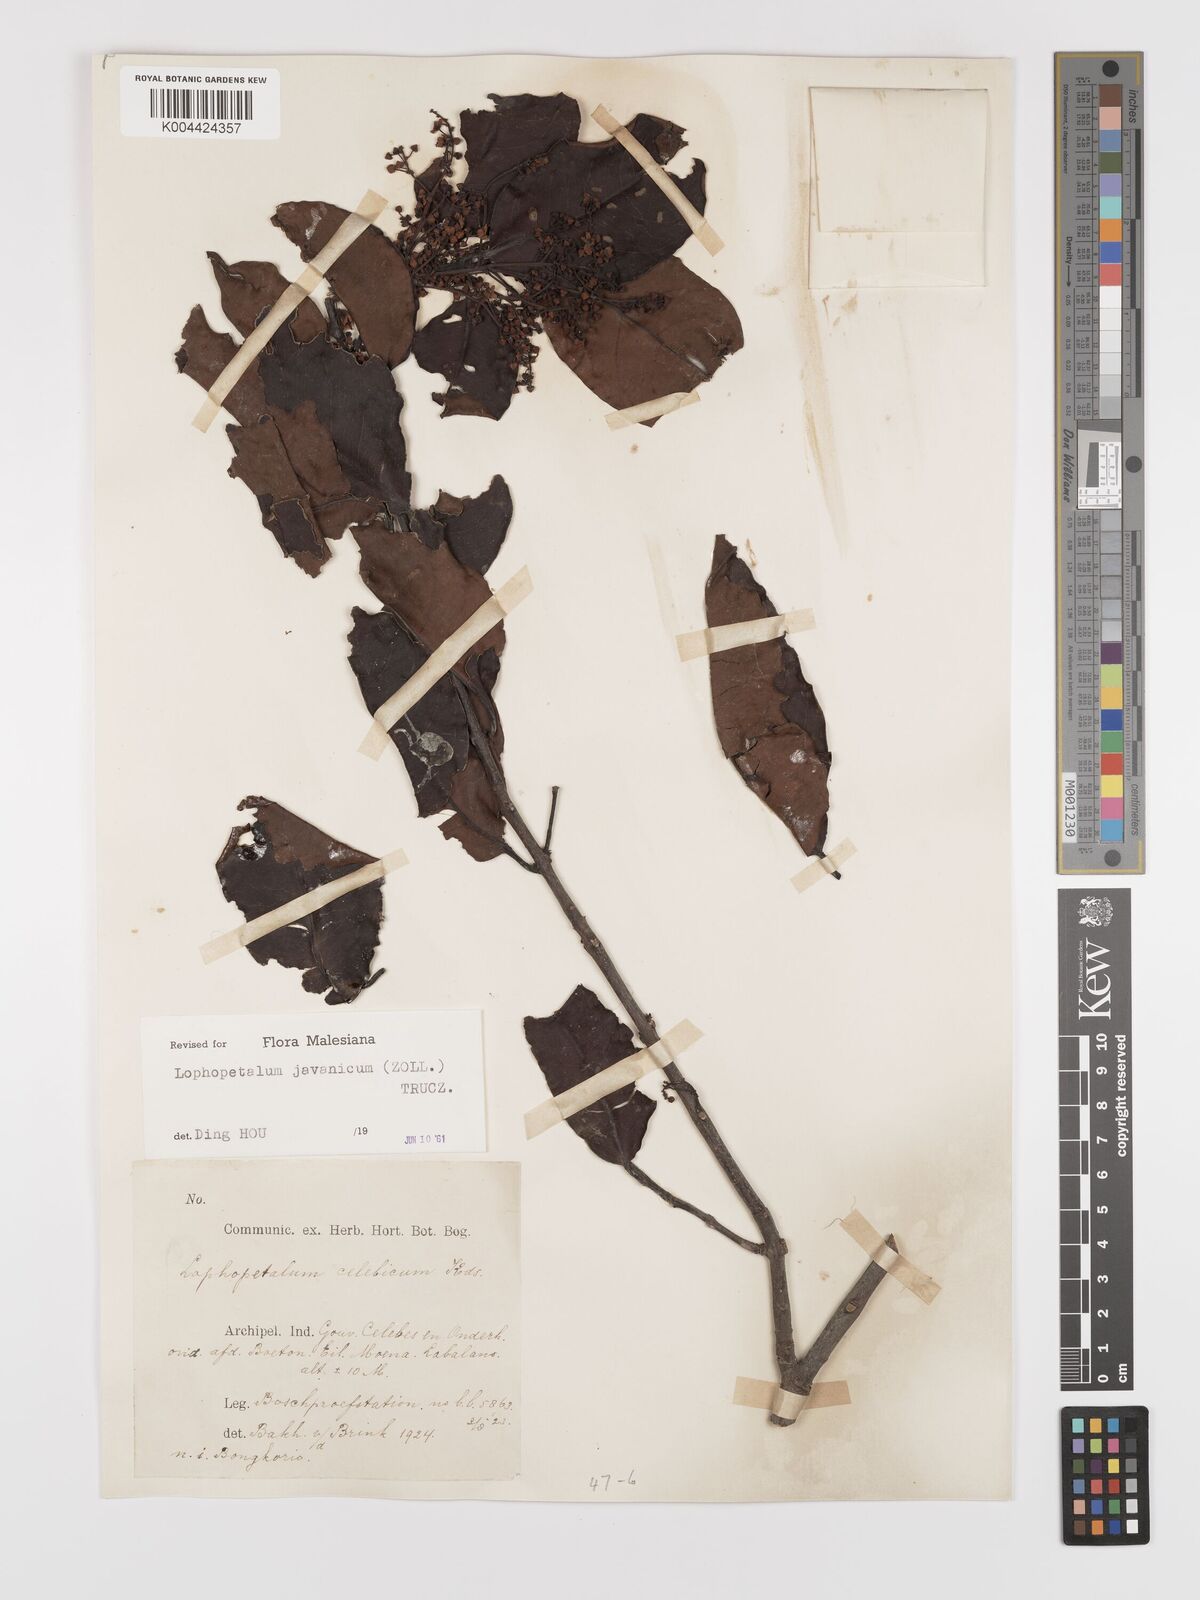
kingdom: Plantae
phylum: Tracheophyta
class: Magnoliopsida
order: Celastrales
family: Celastraceae
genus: Lophopetalum
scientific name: Lophopetalum javanicum
